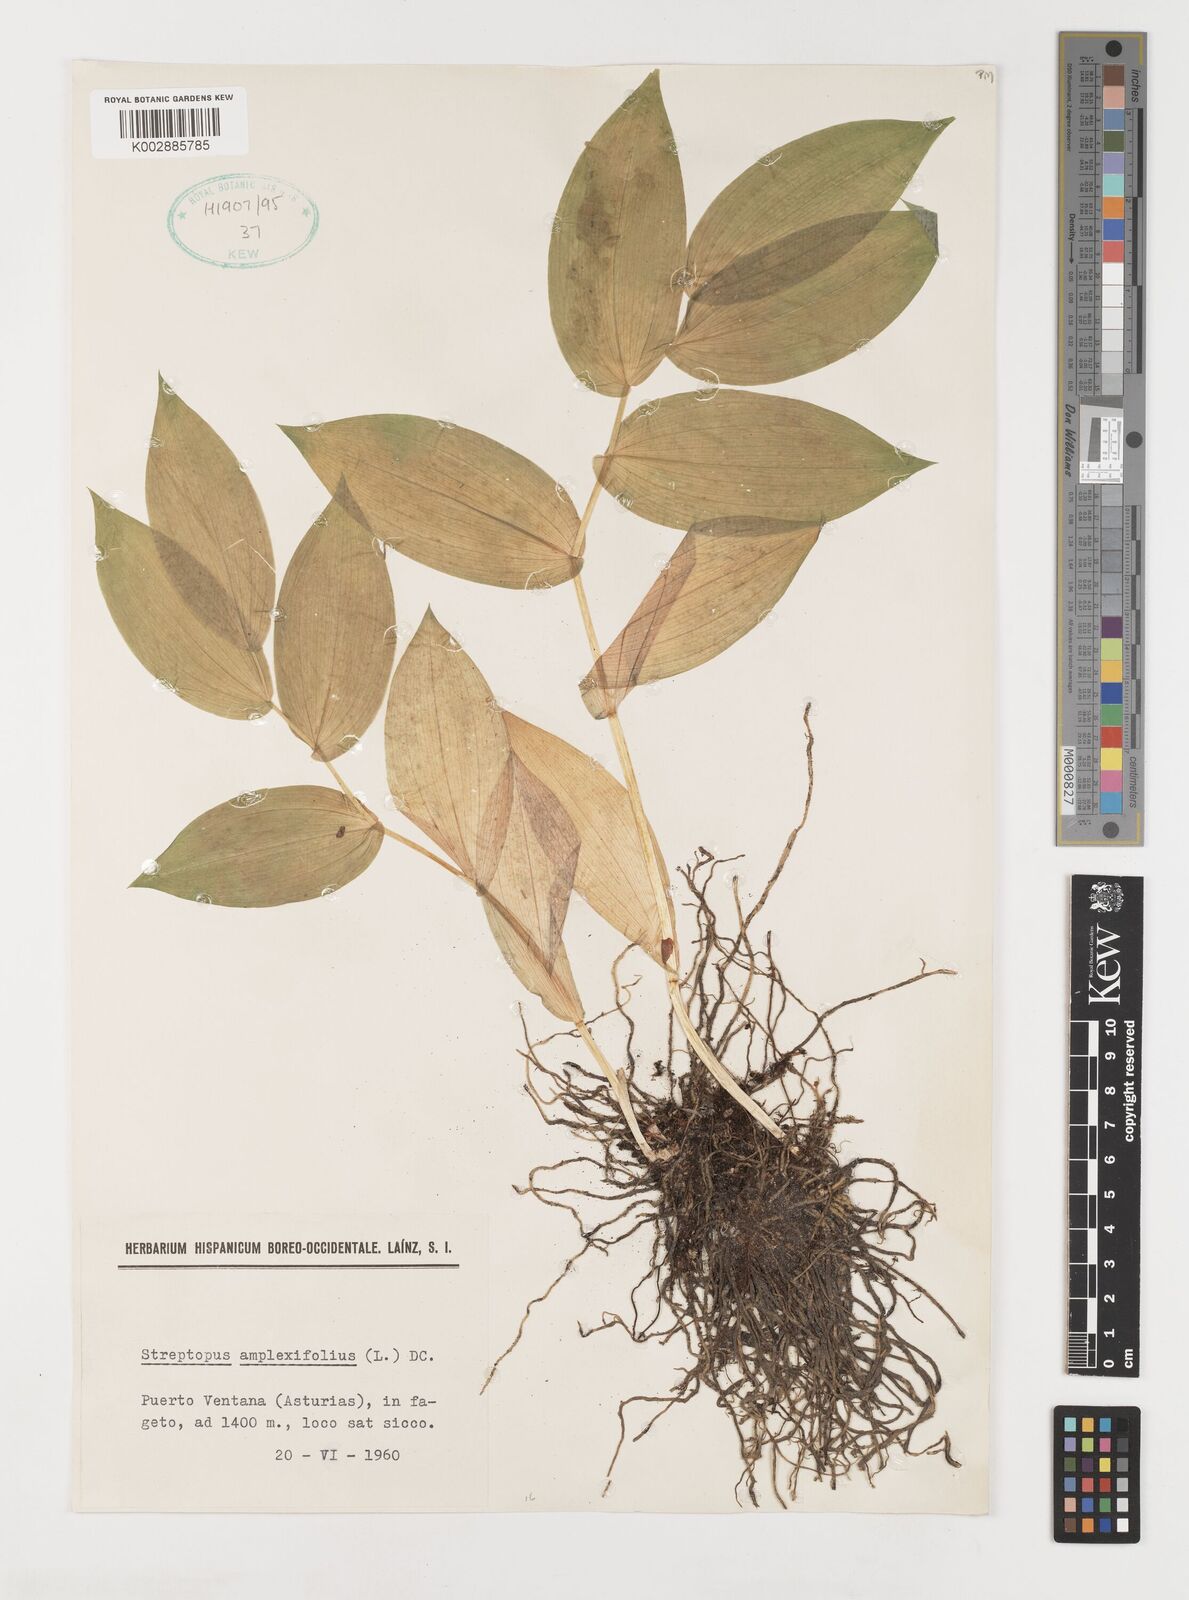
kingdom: Plantae
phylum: Tracheophyta
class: Liliopsida
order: Liliales
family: Liliaceae
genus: Streptopus
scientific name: Streptopus amplexifolius
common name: Clasp twisted stalk
